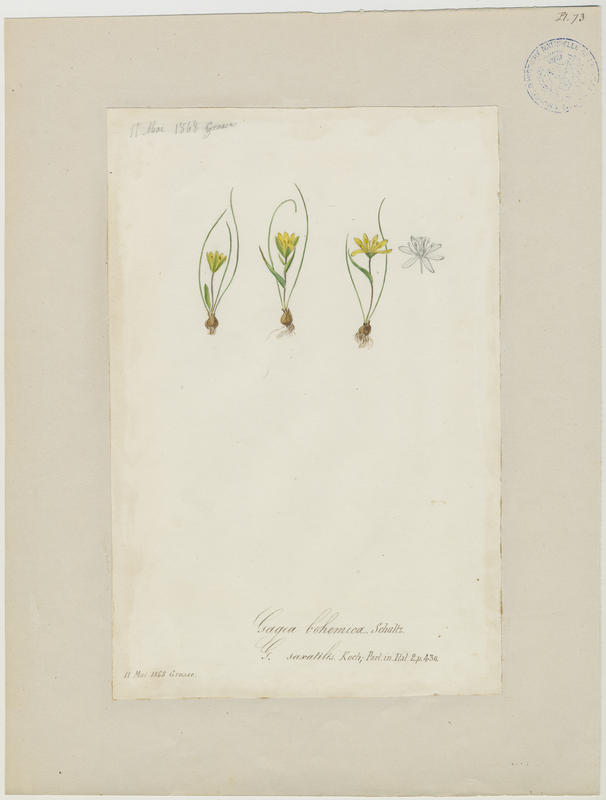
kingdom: Plantae
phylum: Tracheophyta
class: Liliopsida
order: Liliales
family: Liliaceae
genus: Gagea
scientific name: Gagea bohemica
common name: Early star-of-bethlehem
